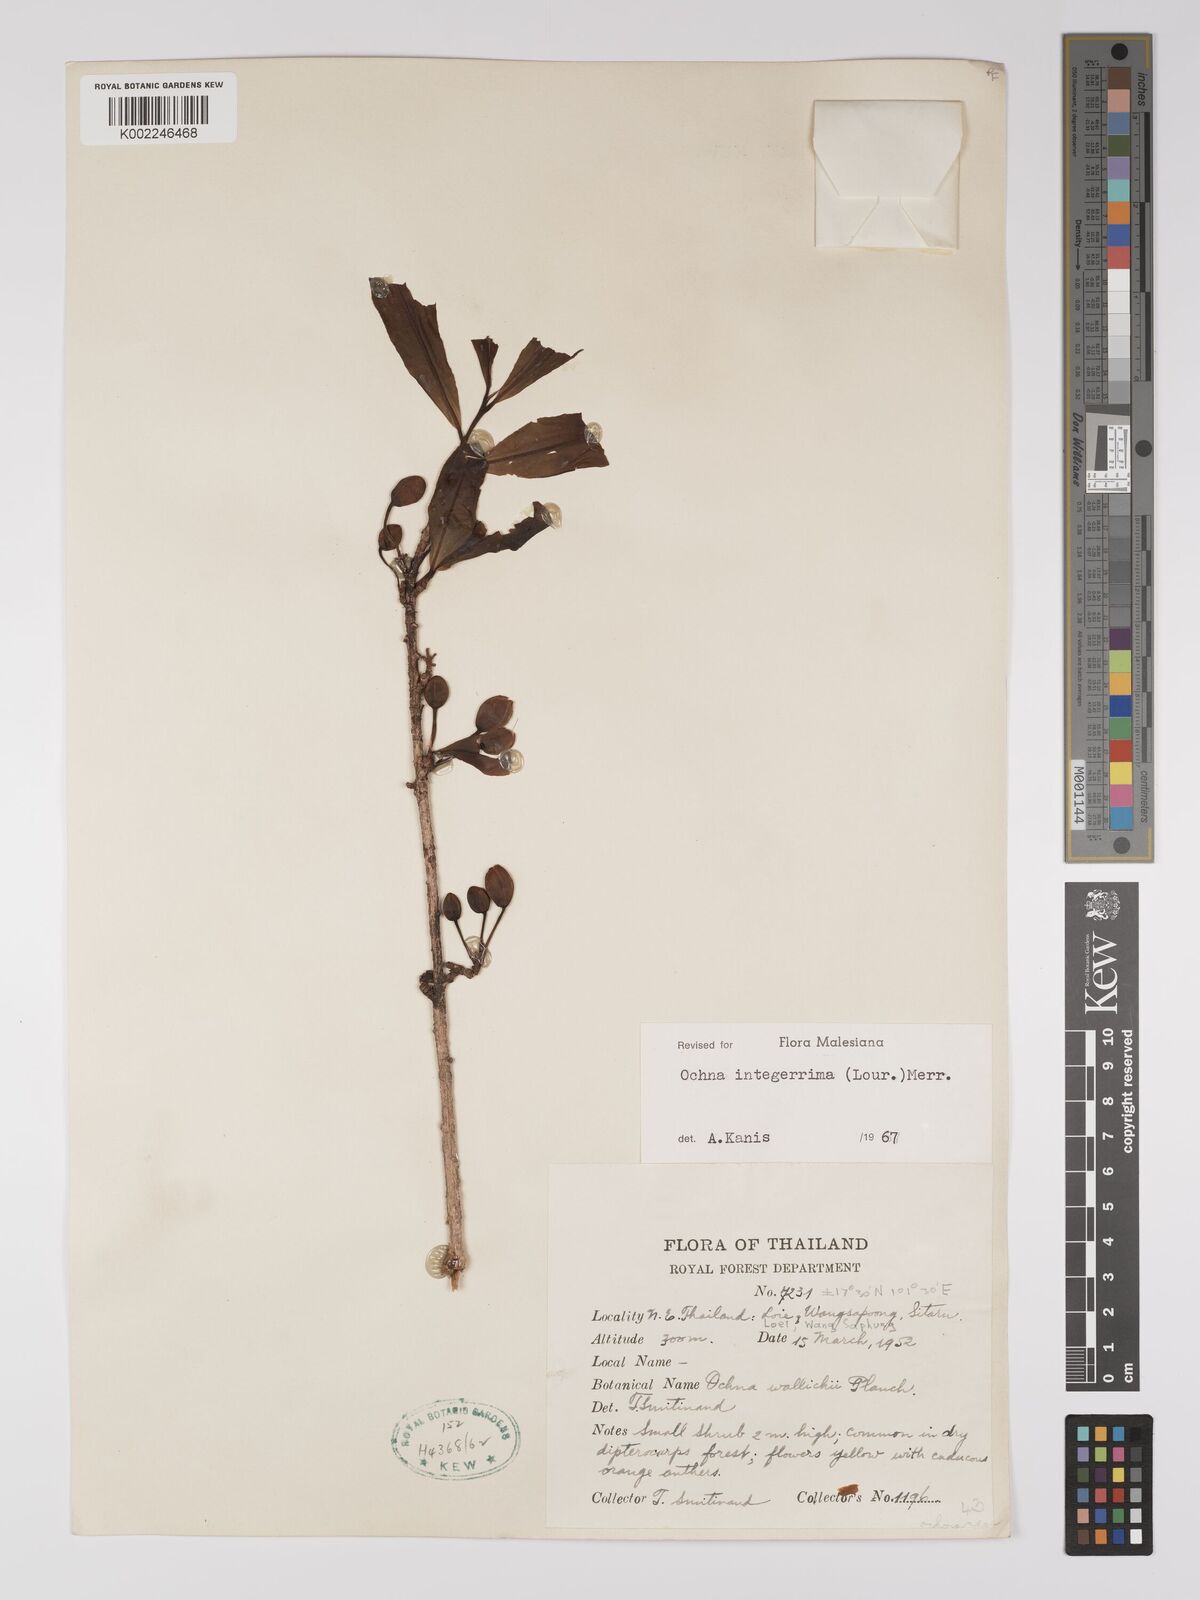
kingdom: Plantae
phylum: Tracheophyta
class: Magnoliopsida
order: Malpighiales
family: Ochnaceae
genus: Ochna
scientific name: Ochna integerrima
